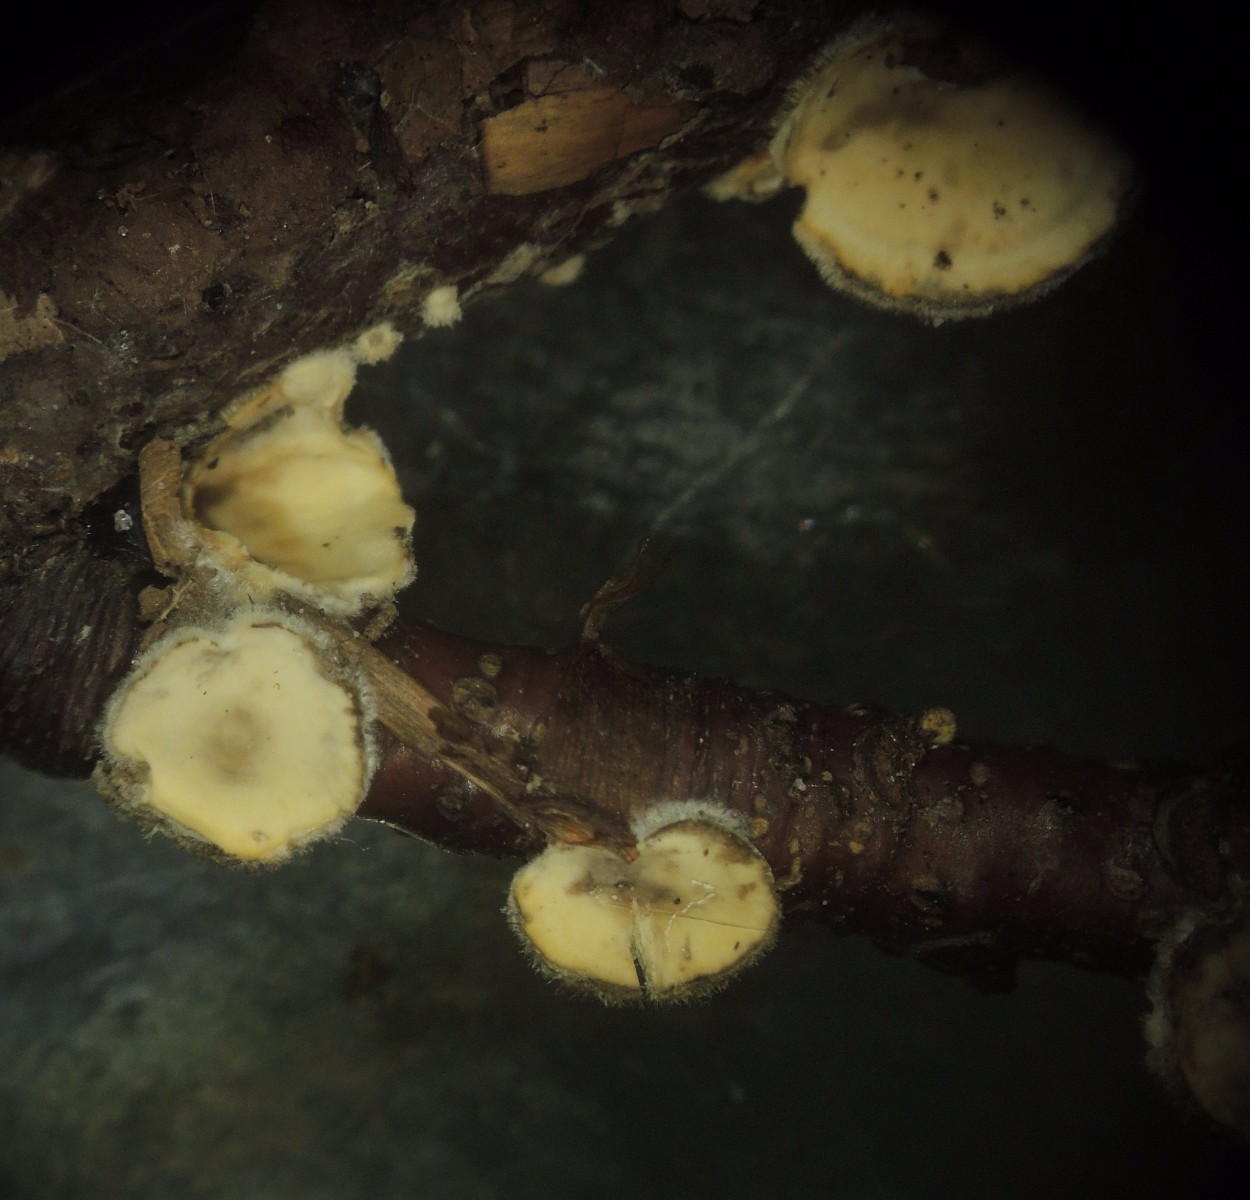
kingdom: Fungi
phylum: Basidiomycota
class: Agaricomycetes
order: Russulales
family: Stereaceae
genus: Stereum
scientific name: Stereum complicatum
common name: liden lædersvamp
